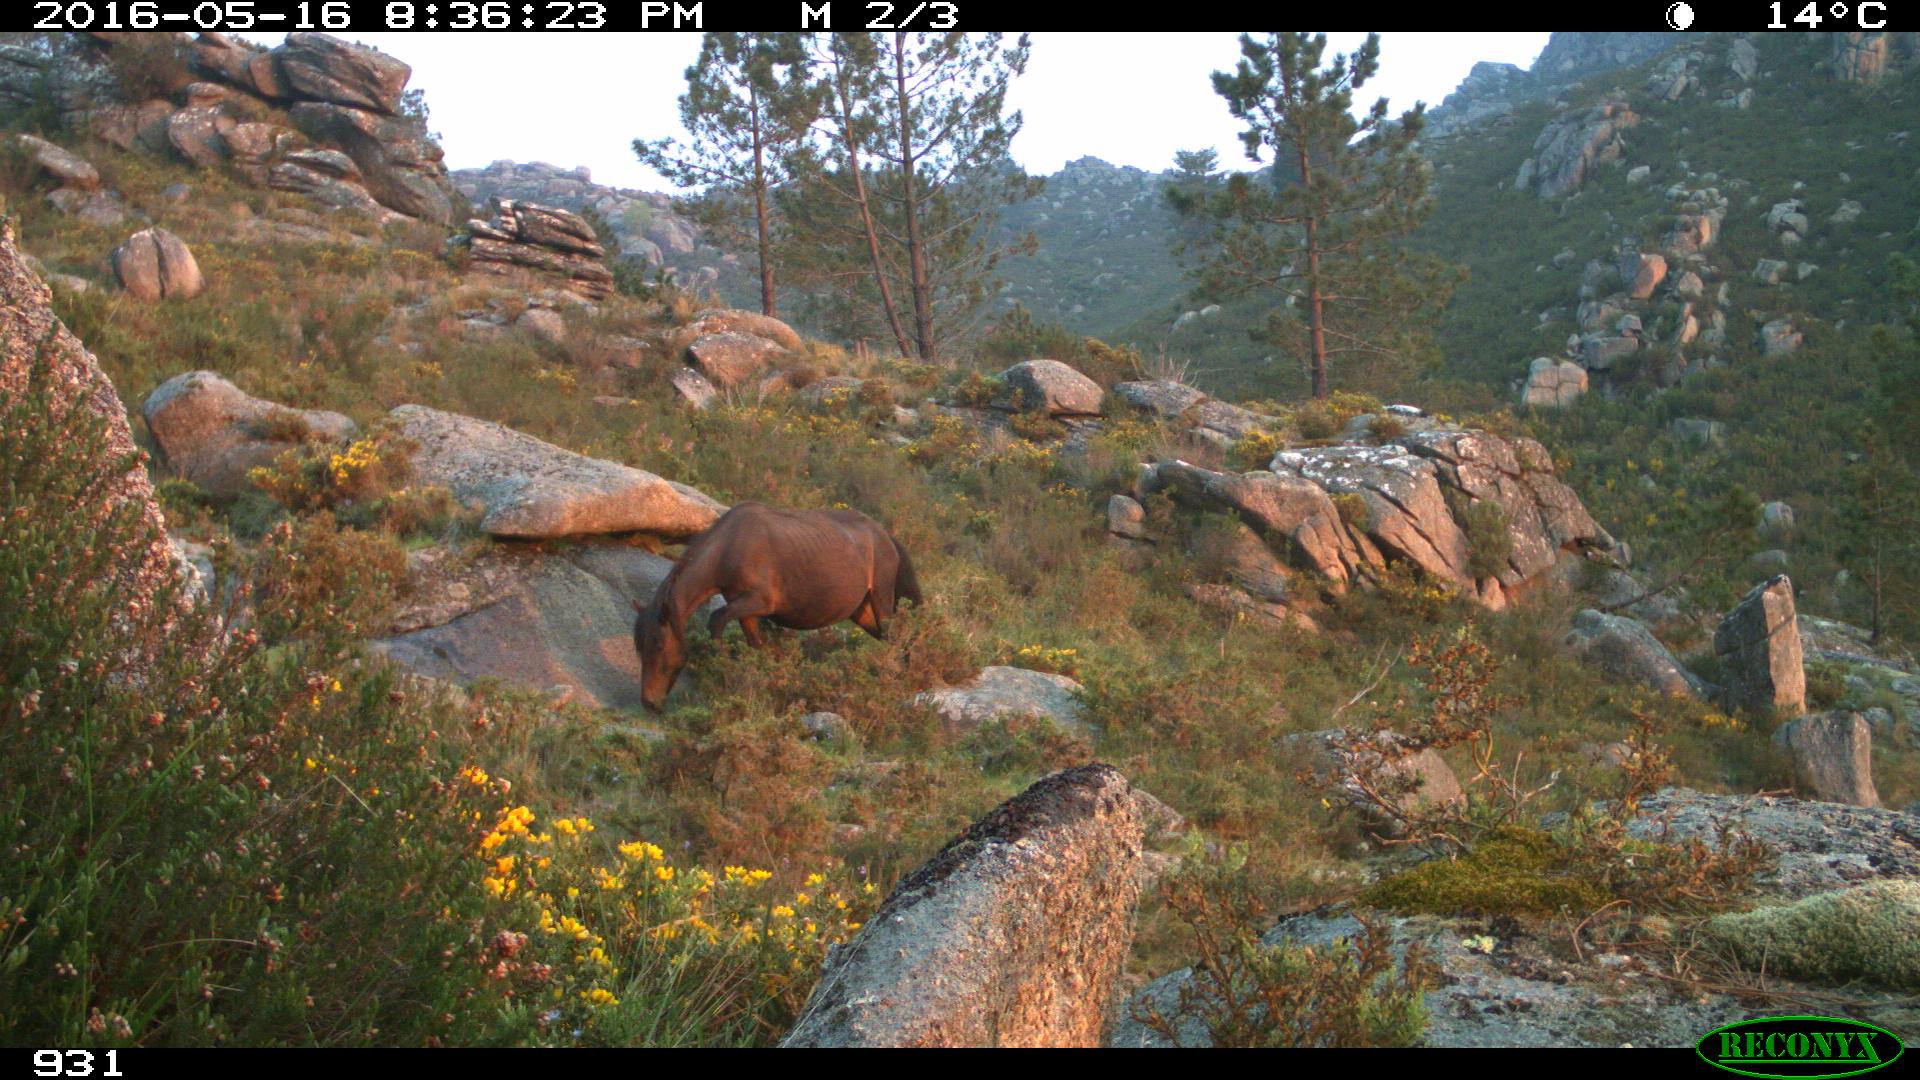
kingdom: Animalia
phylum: Chordata
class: Mammalia
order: Perissodactyla
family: Equidae
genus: Equus
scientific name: Equus caballus
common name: Horse
